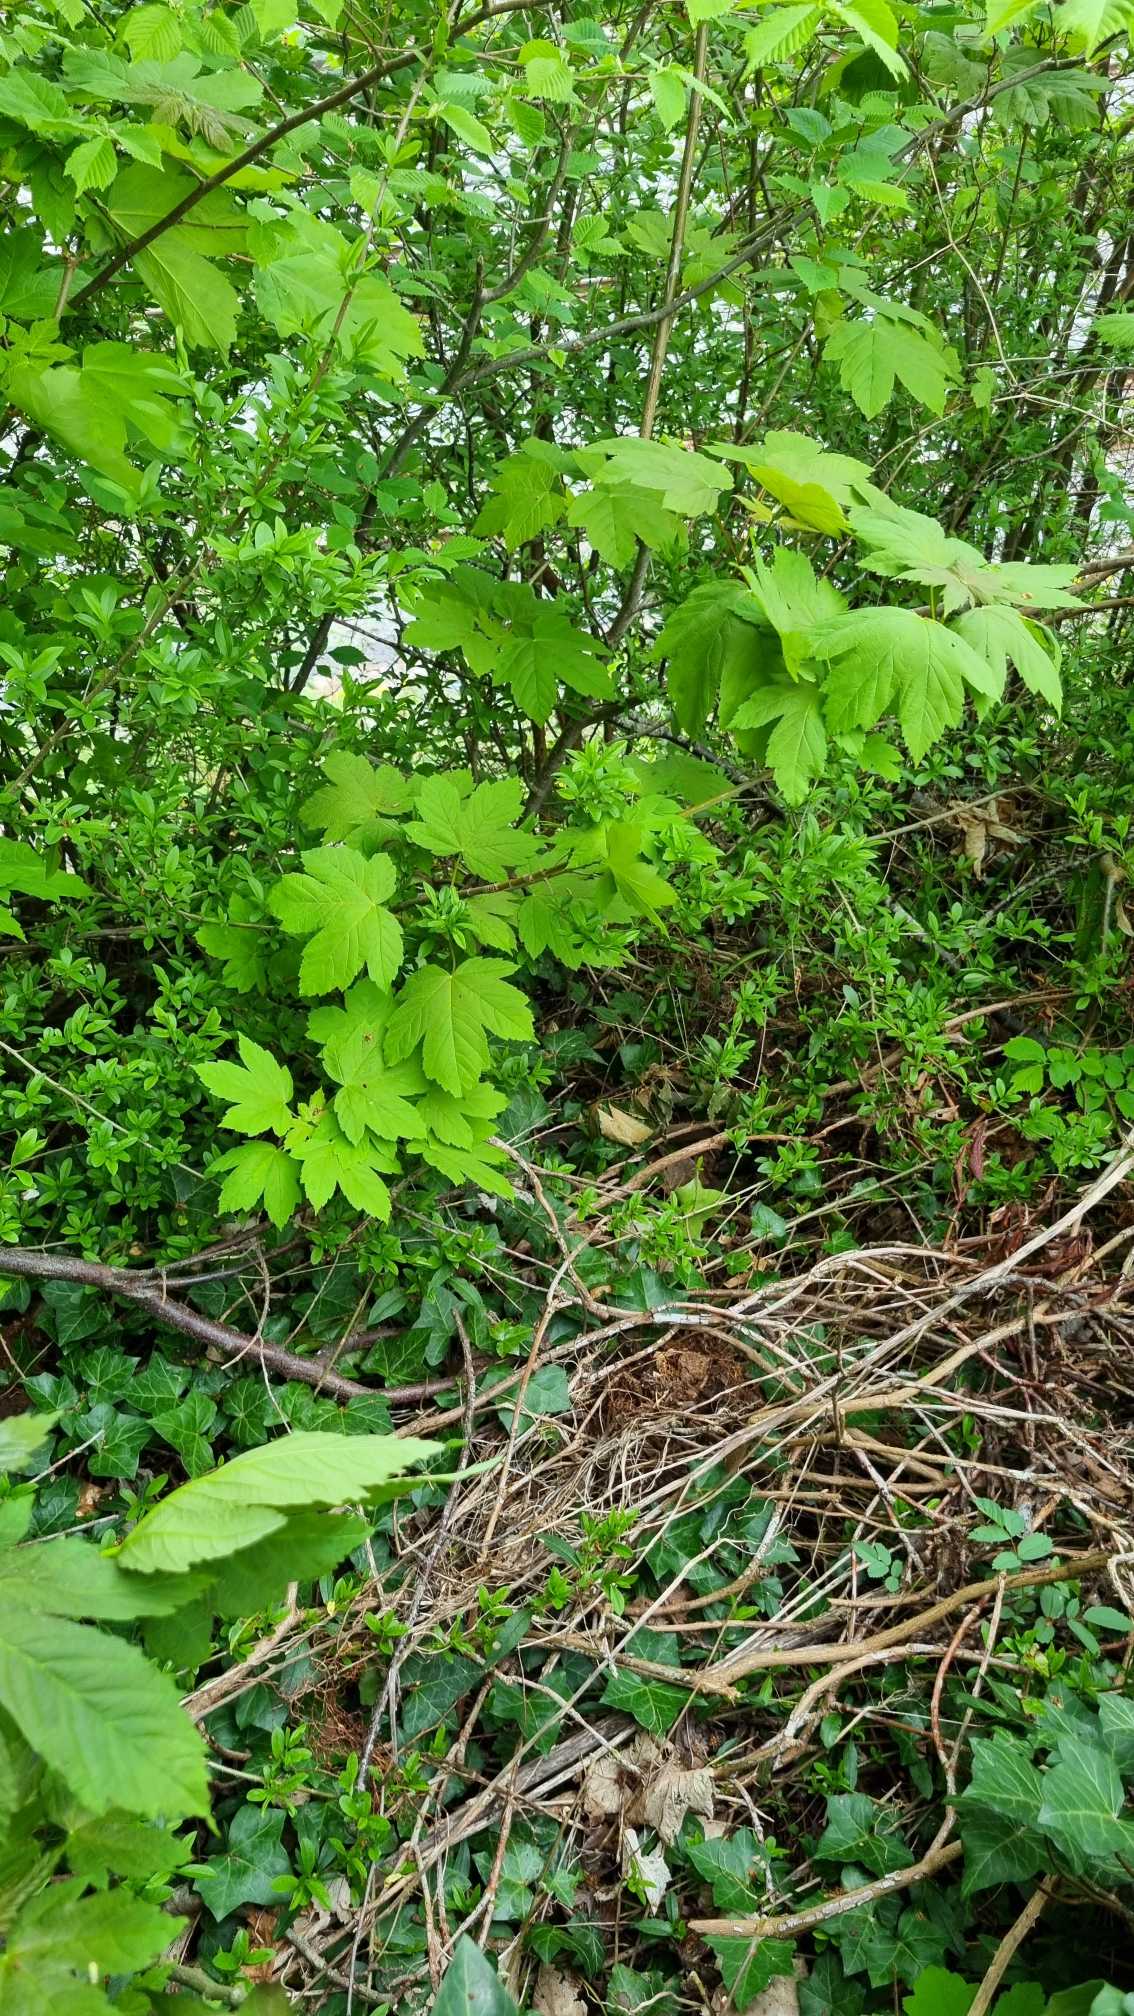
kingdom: Plantae
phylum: Tracheophyta
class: Magnoliopsida
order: Sapindales
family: Sapindaceae
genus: Acer
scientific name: Acer pseudoplatanus
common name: Ahorn
